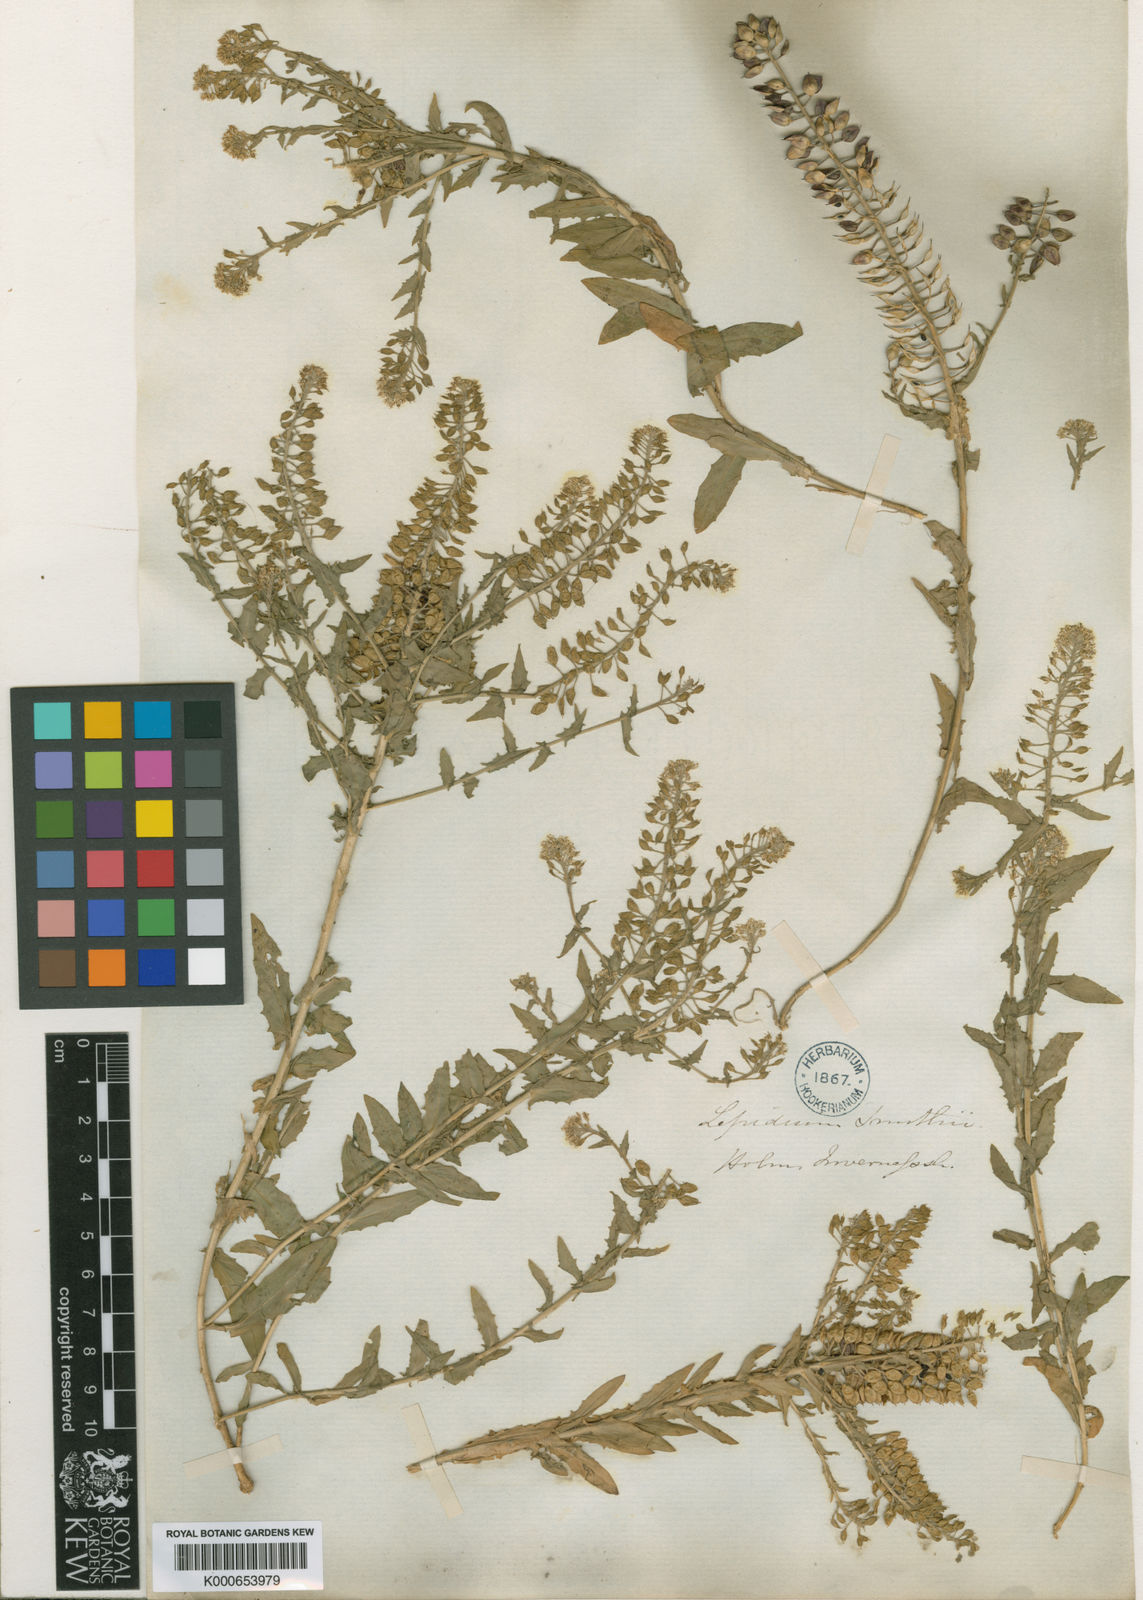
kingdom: Plantae
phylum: Tracheophyta
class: Magnoliopsida
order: Brassicales
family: Brassicaceae
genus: Lepidium
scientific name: Lepidium heterophyllum
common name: Smith's pepperwort
